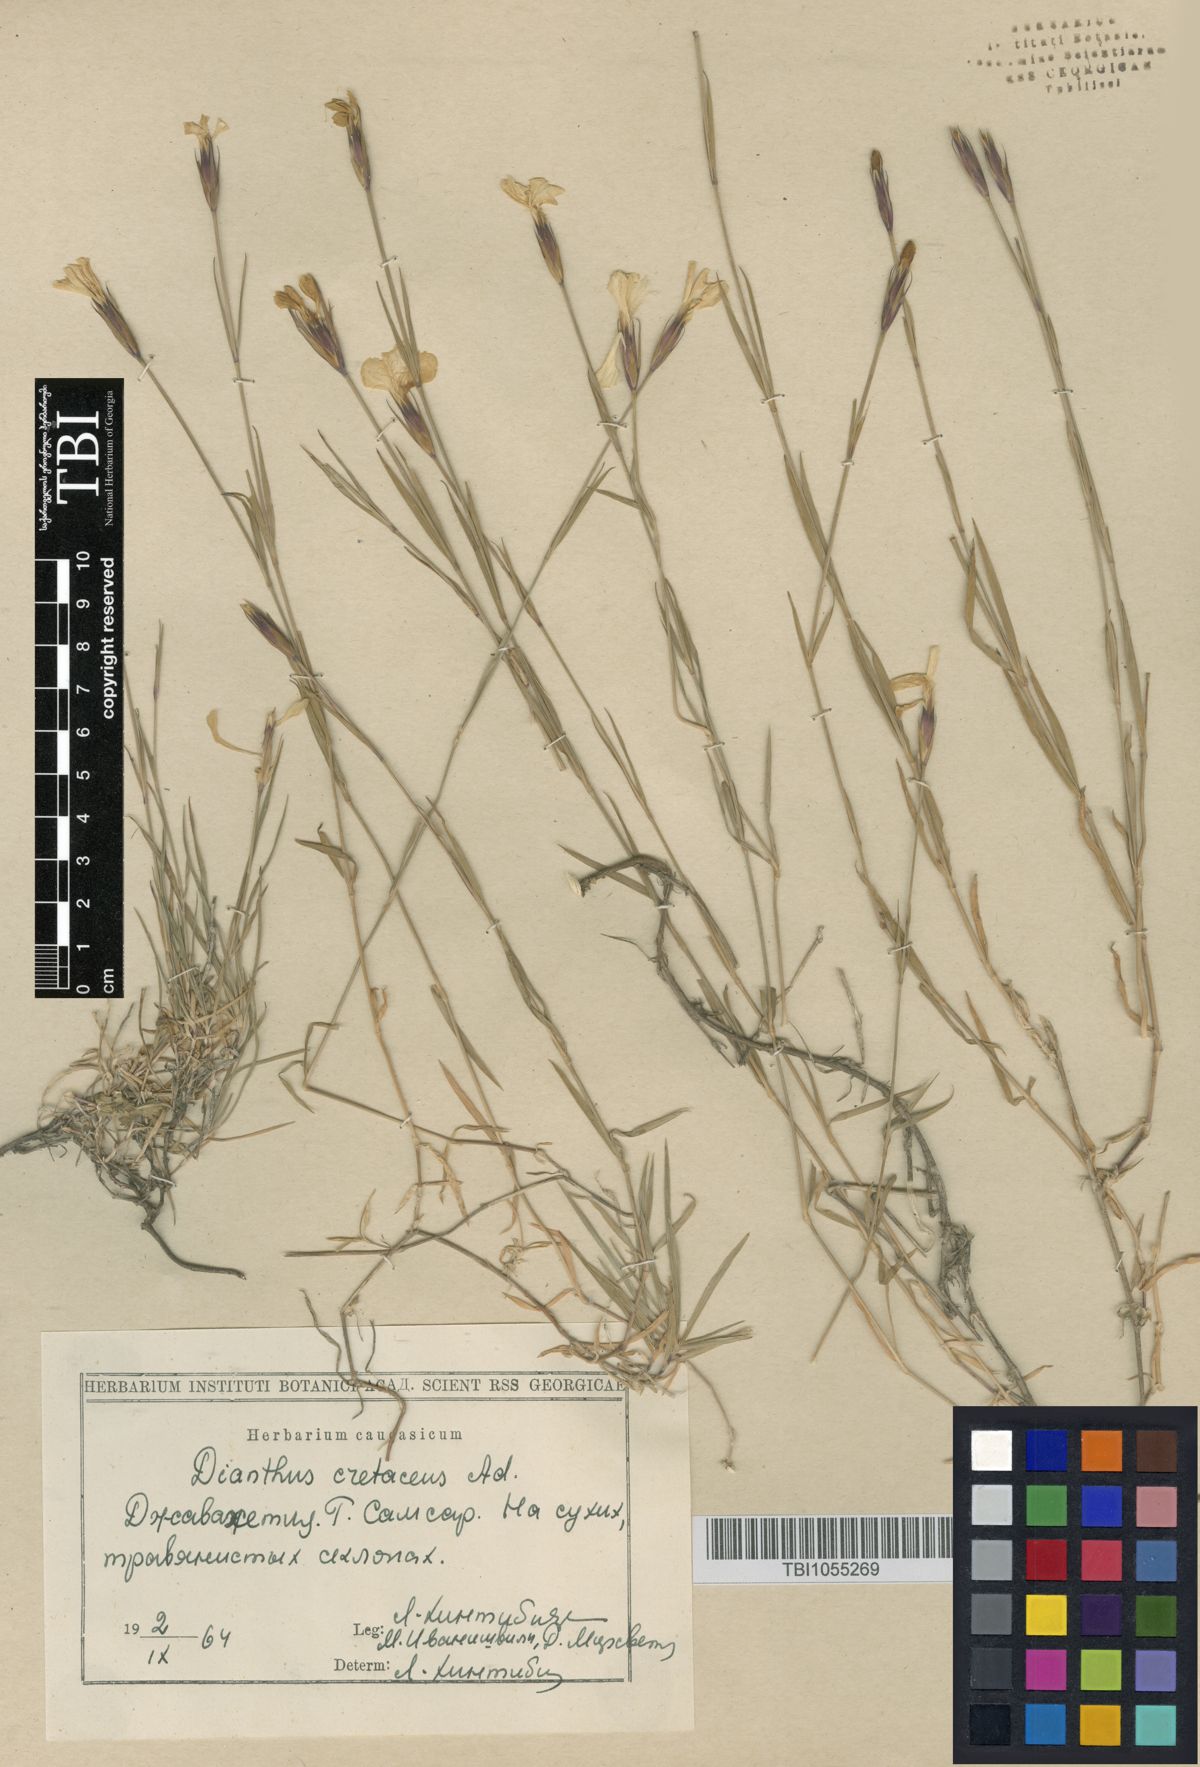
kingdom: Plantae
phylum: Tracheophyta
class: Magnoliopsida
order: Caryophyllales
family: Caryophyllaceae
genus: Dianthus
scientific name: Dianthus cretaceus
